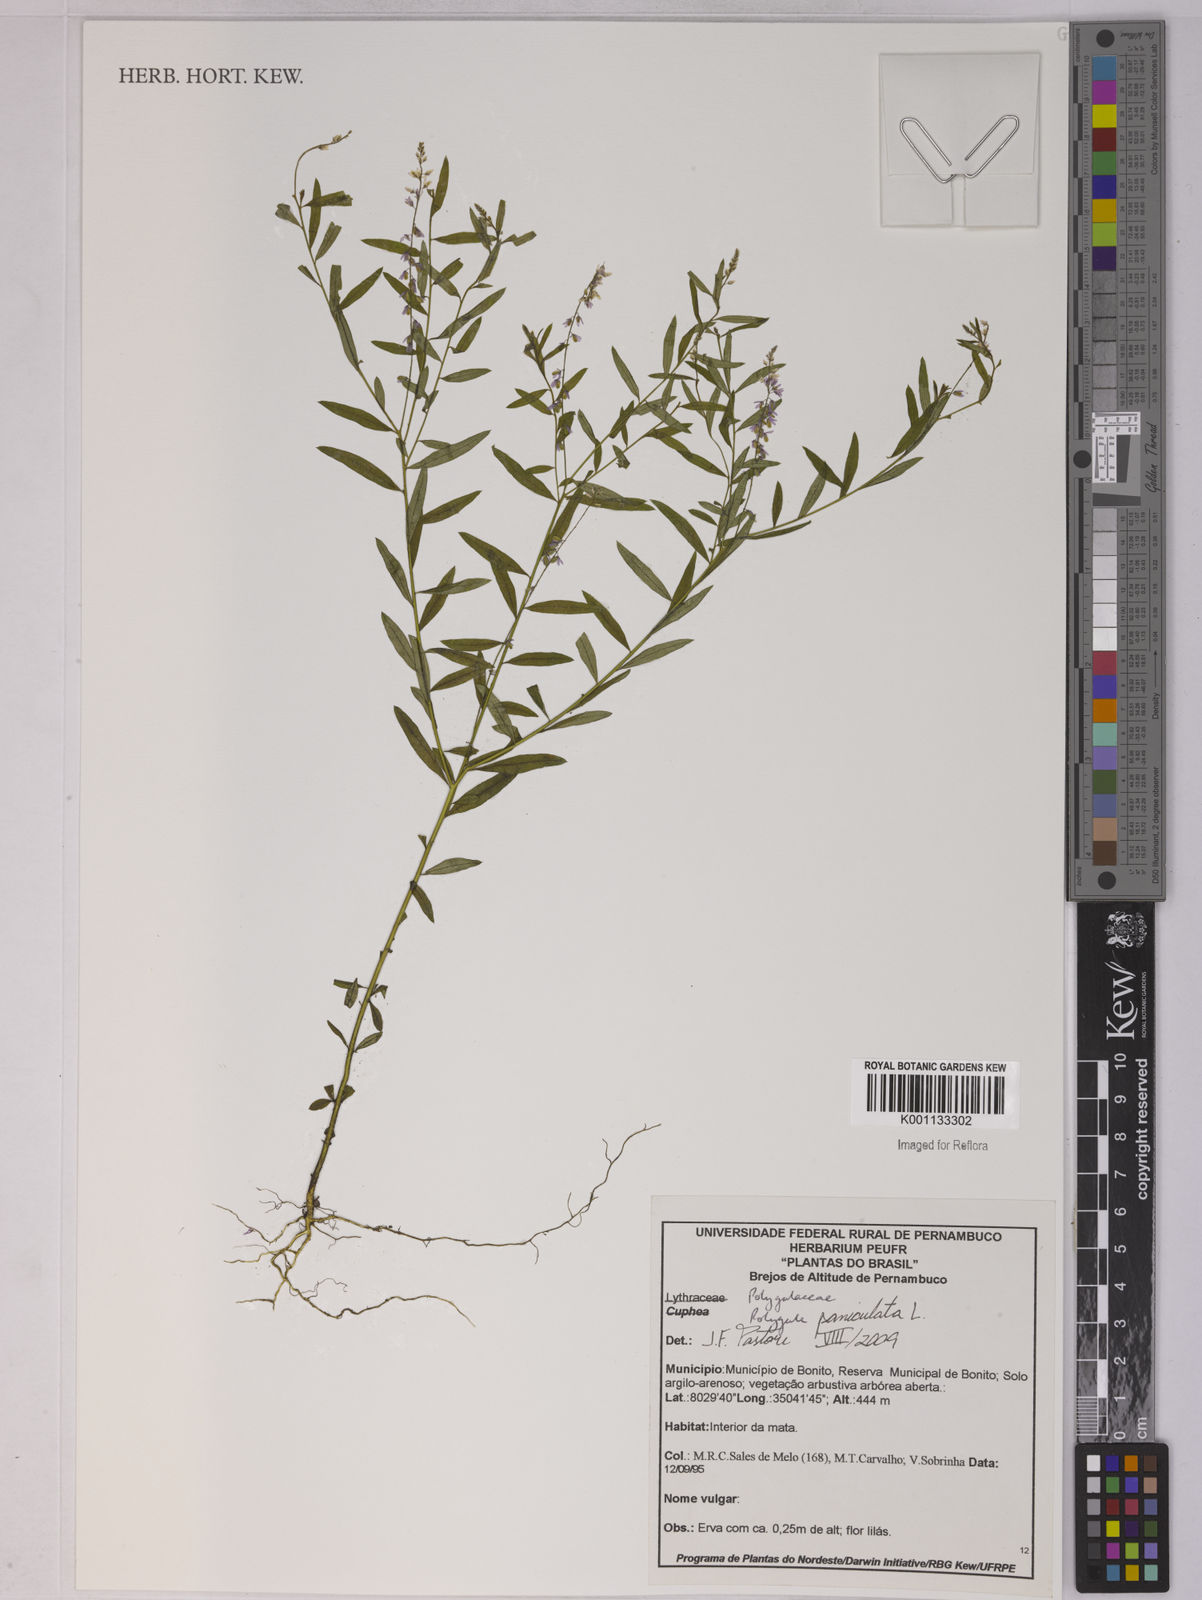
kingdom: Plantae
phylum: Tracheophyta
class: Magnoliopsida
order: Fabales
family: Polygalaceae
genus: Polygala
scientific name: Polygala paniculata
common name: Orosne
